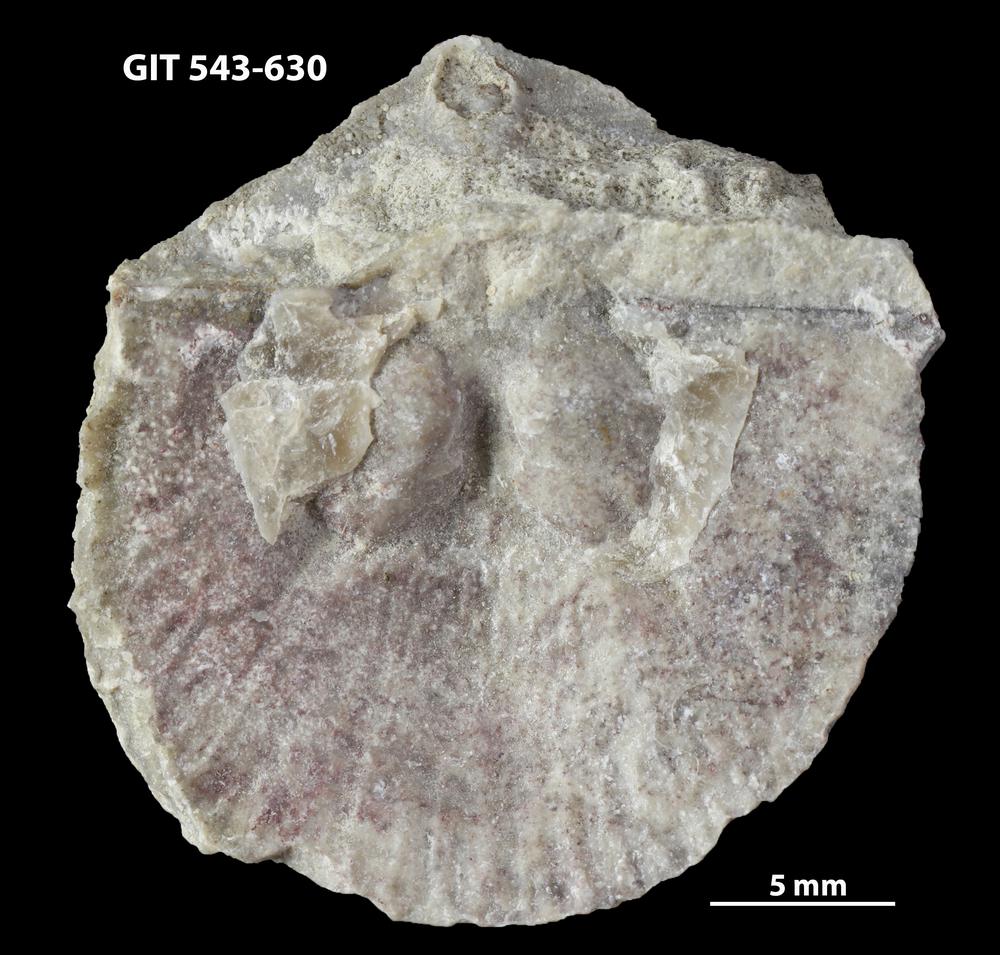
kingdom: Animalia
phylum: Brachiopoda
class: Rhynchonellata
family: Clitambonitidae
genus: Vellamo
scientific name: Vellamo Orthis verneuili
